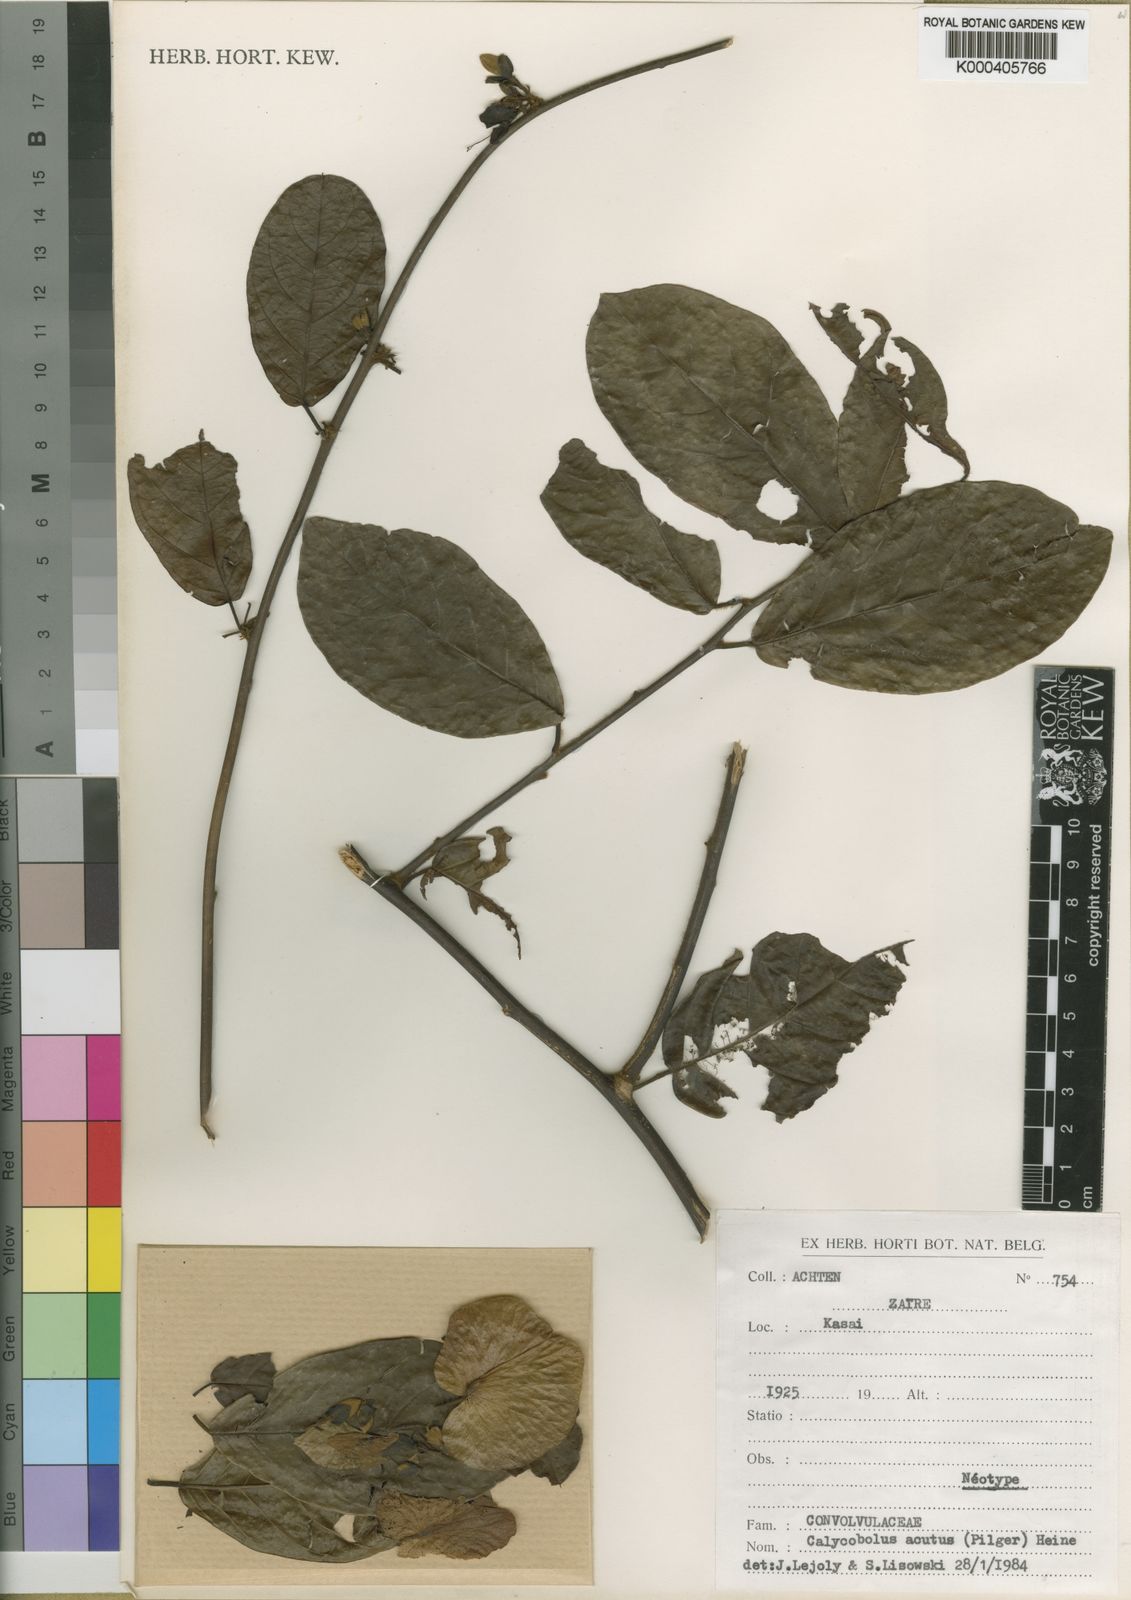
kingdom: Plantae
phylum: Tracheophyta
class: Magnoliopsida
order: Solanales
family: Convolvulaceae
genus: Calycobolus
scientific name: Calycobolus acuminatus
